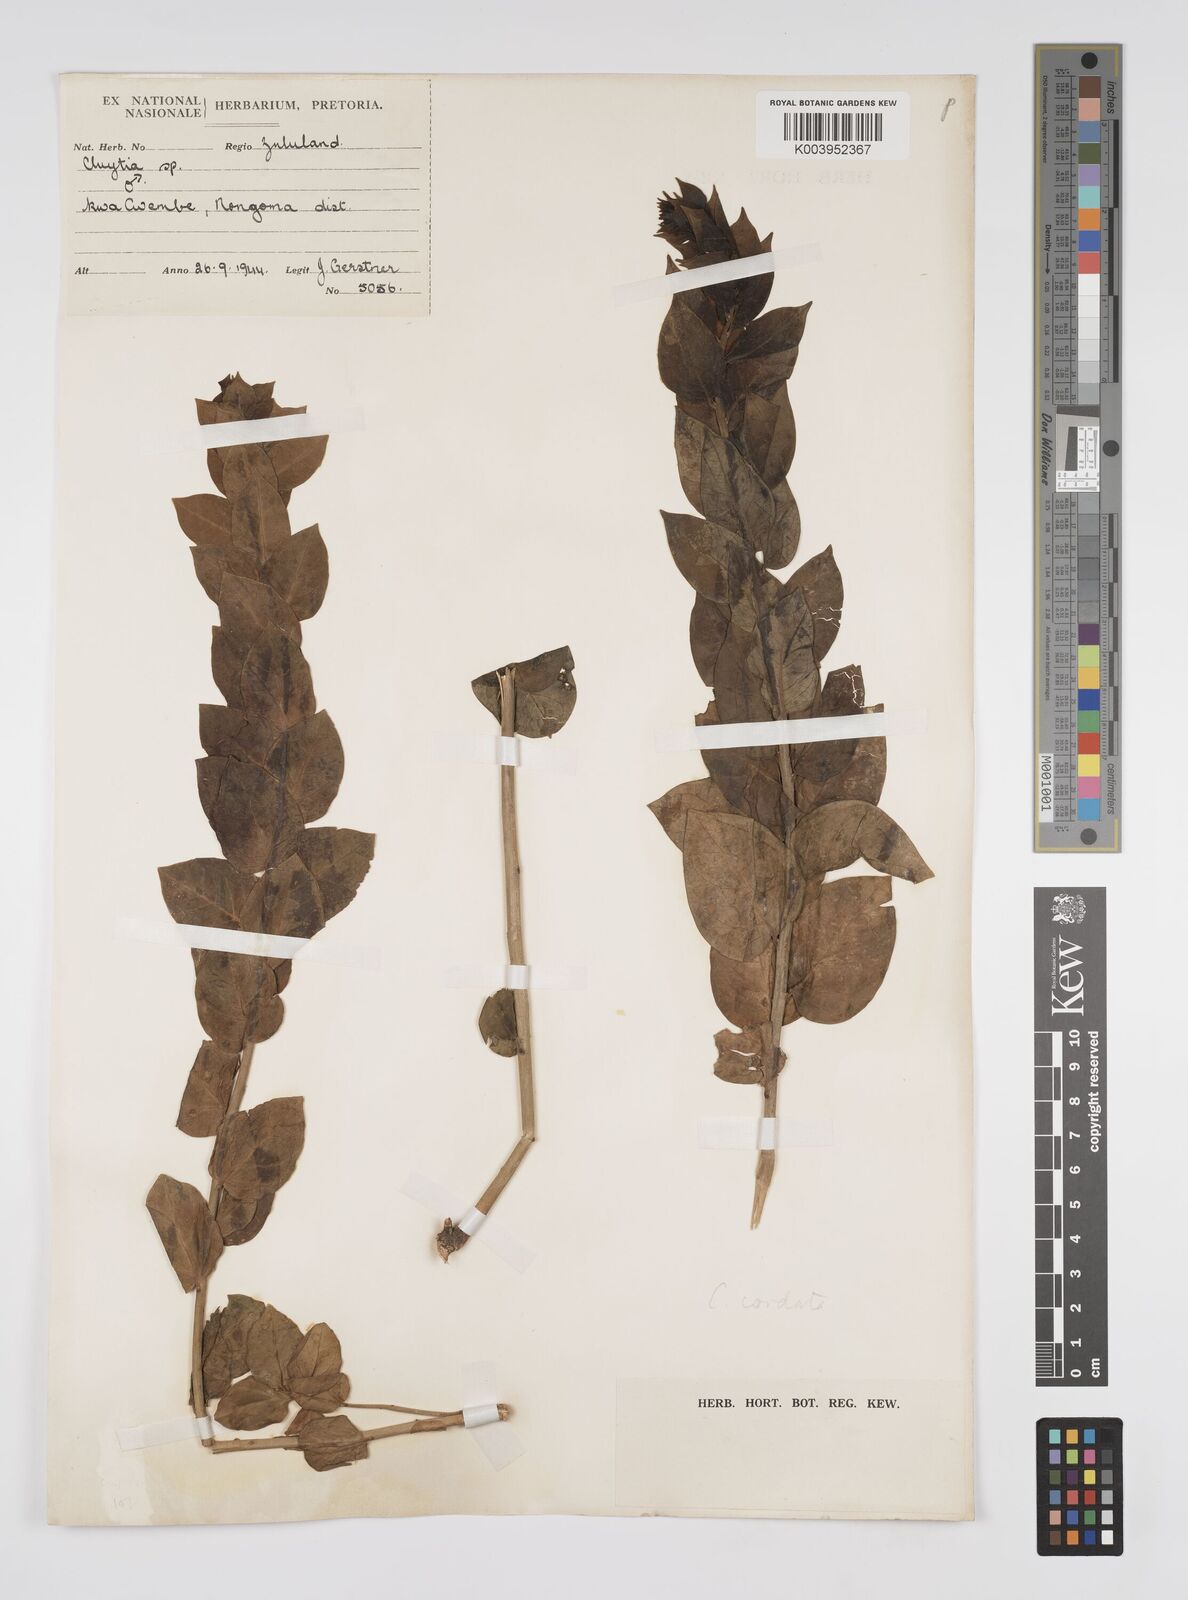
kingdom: Plantae
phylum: Tracheophyta
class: Magnoliopsida
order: Malpighiales
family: Peraceae
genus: Clutia
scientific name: Clutia cordata
